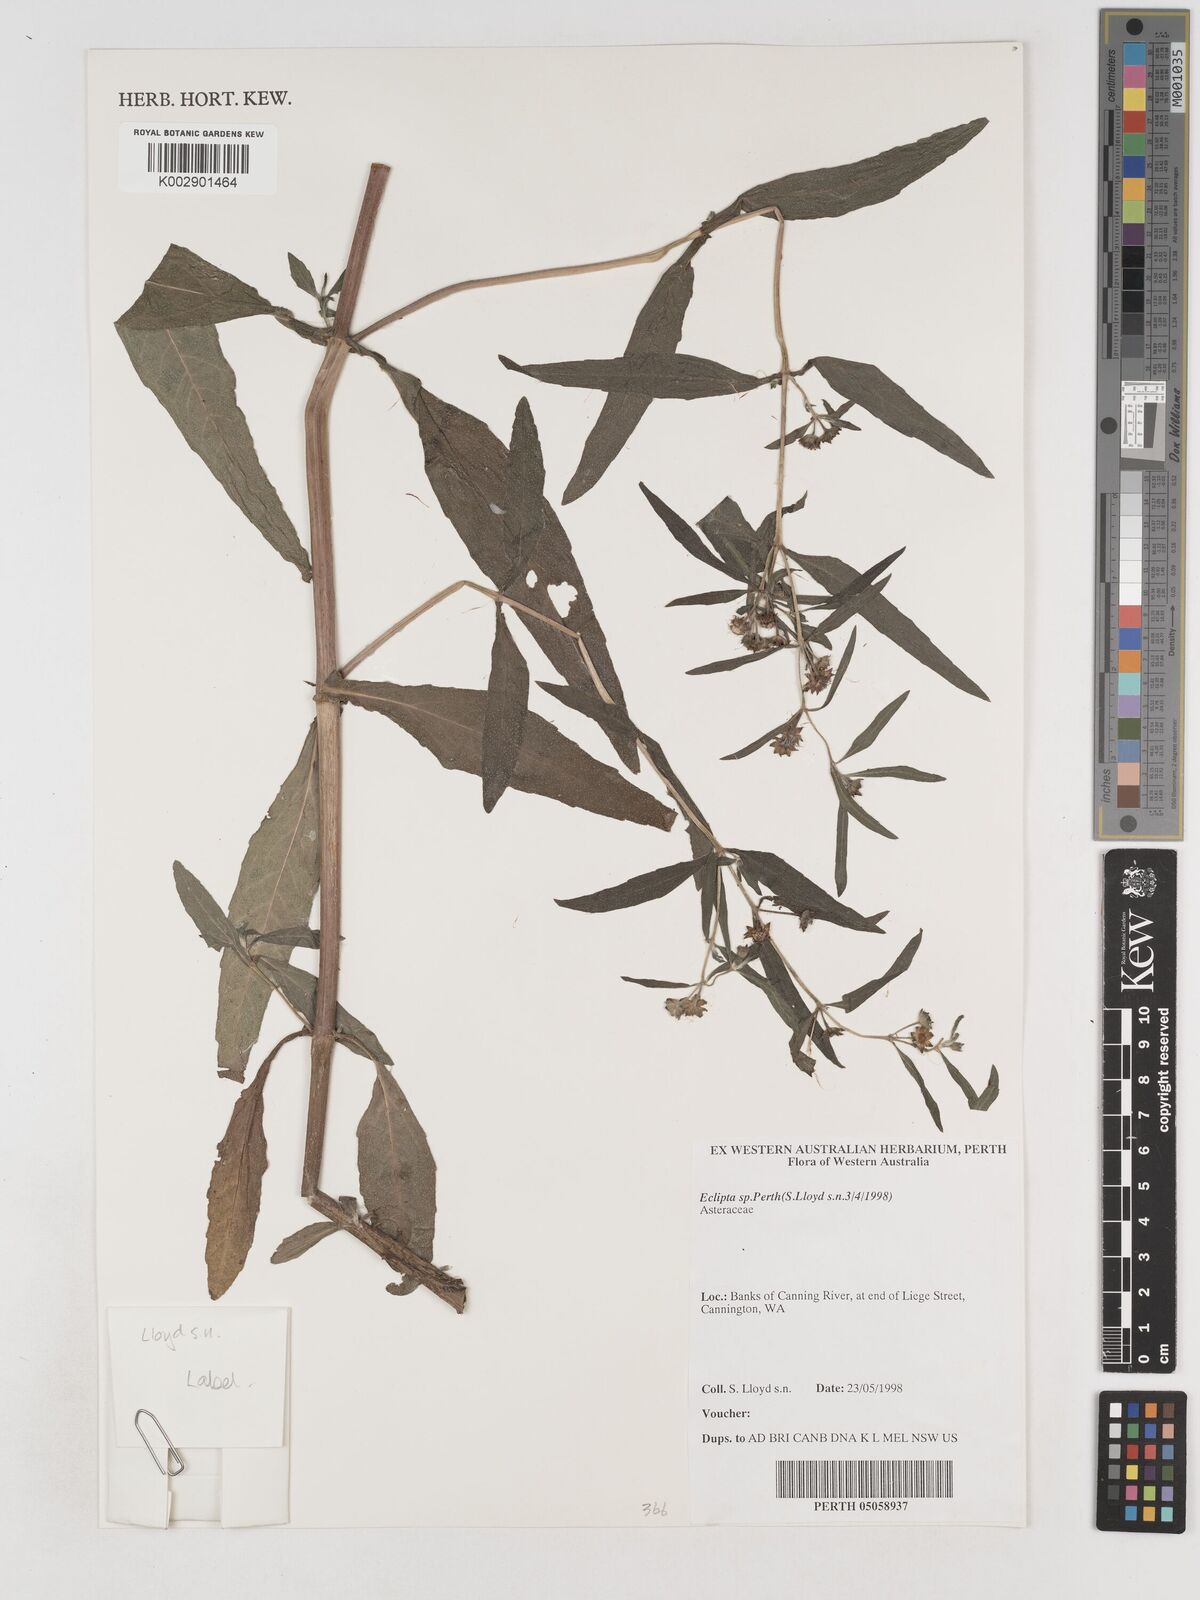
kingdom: Plantae
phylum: Tracheophyta
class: Magnoliopsida
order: Asterales
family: Asteraceae
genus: Eclipta
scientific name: Eclipta alba
